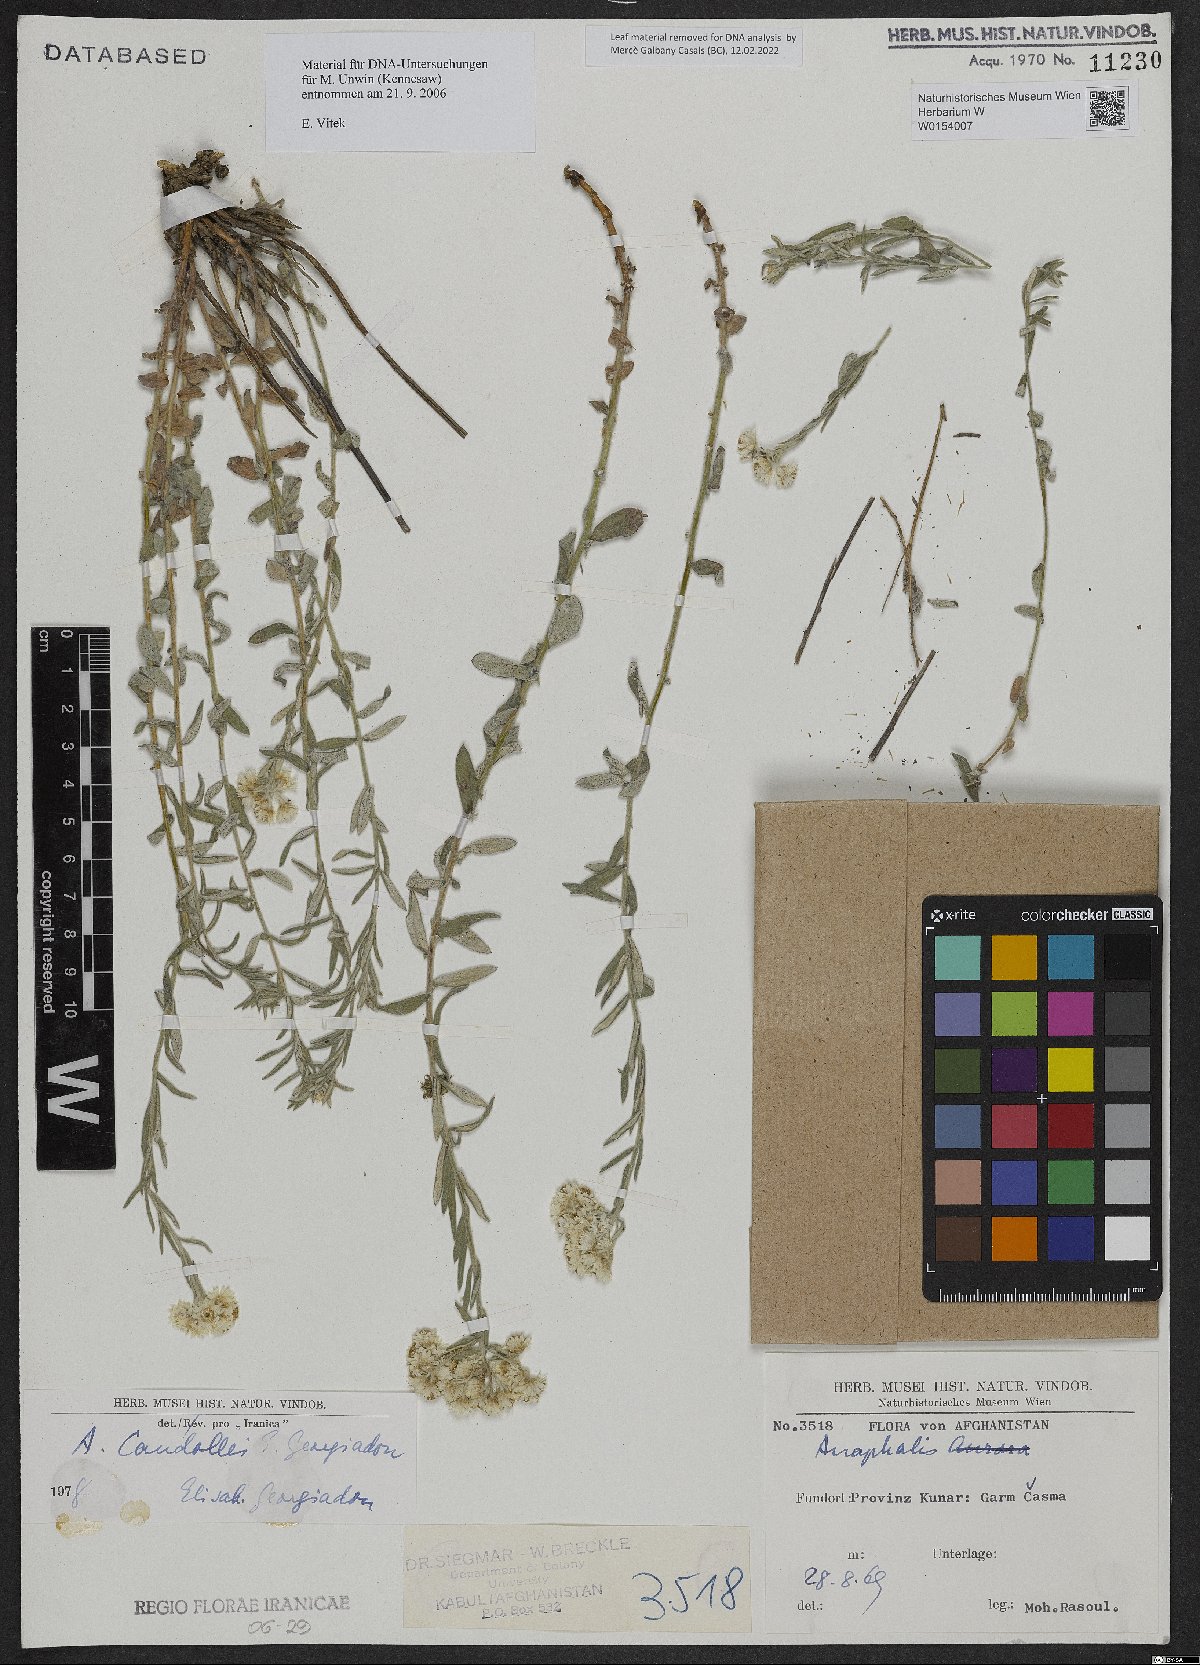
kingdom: Plantae
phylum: Tracheophyta
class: Magnoliopsida
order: Asterales
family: Asteraceae
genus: Anaphalis
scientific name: Anaphalis candollei
